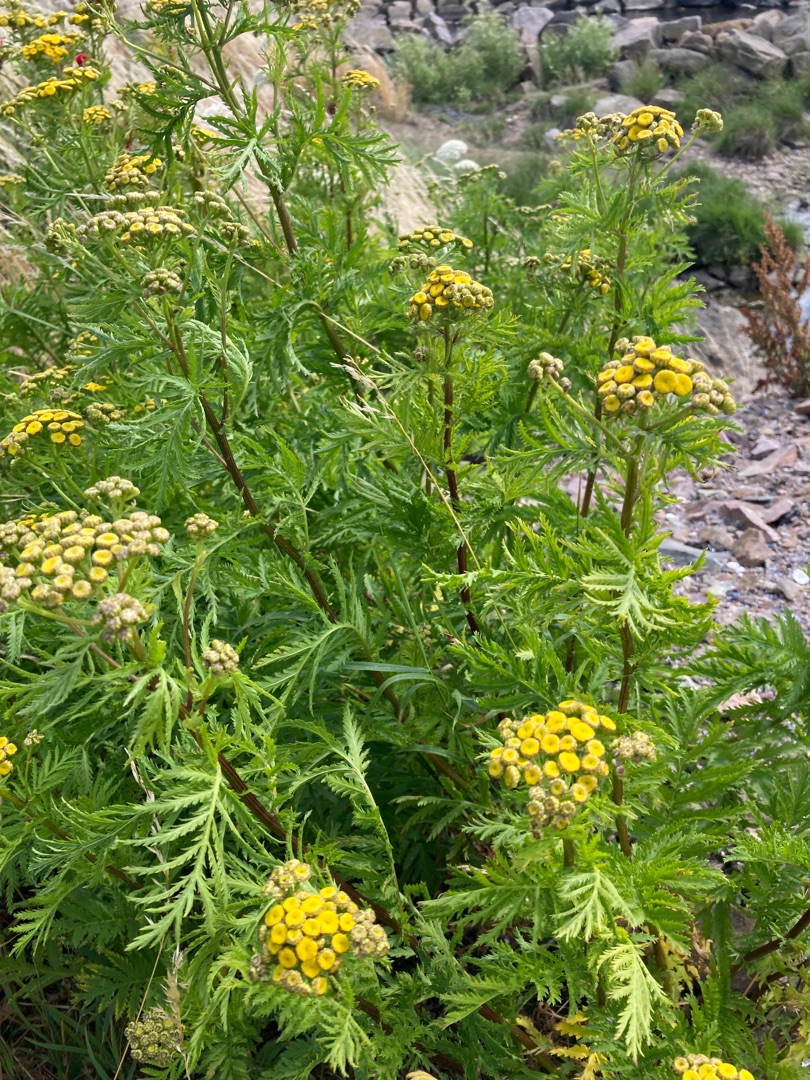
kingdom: Plantae
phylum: Tracheophyta
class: Magnoliopsida
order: Asterales
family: Asteraceae
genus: Tanacetum
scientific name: Tanacetum vulgare
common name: Rejnfan
